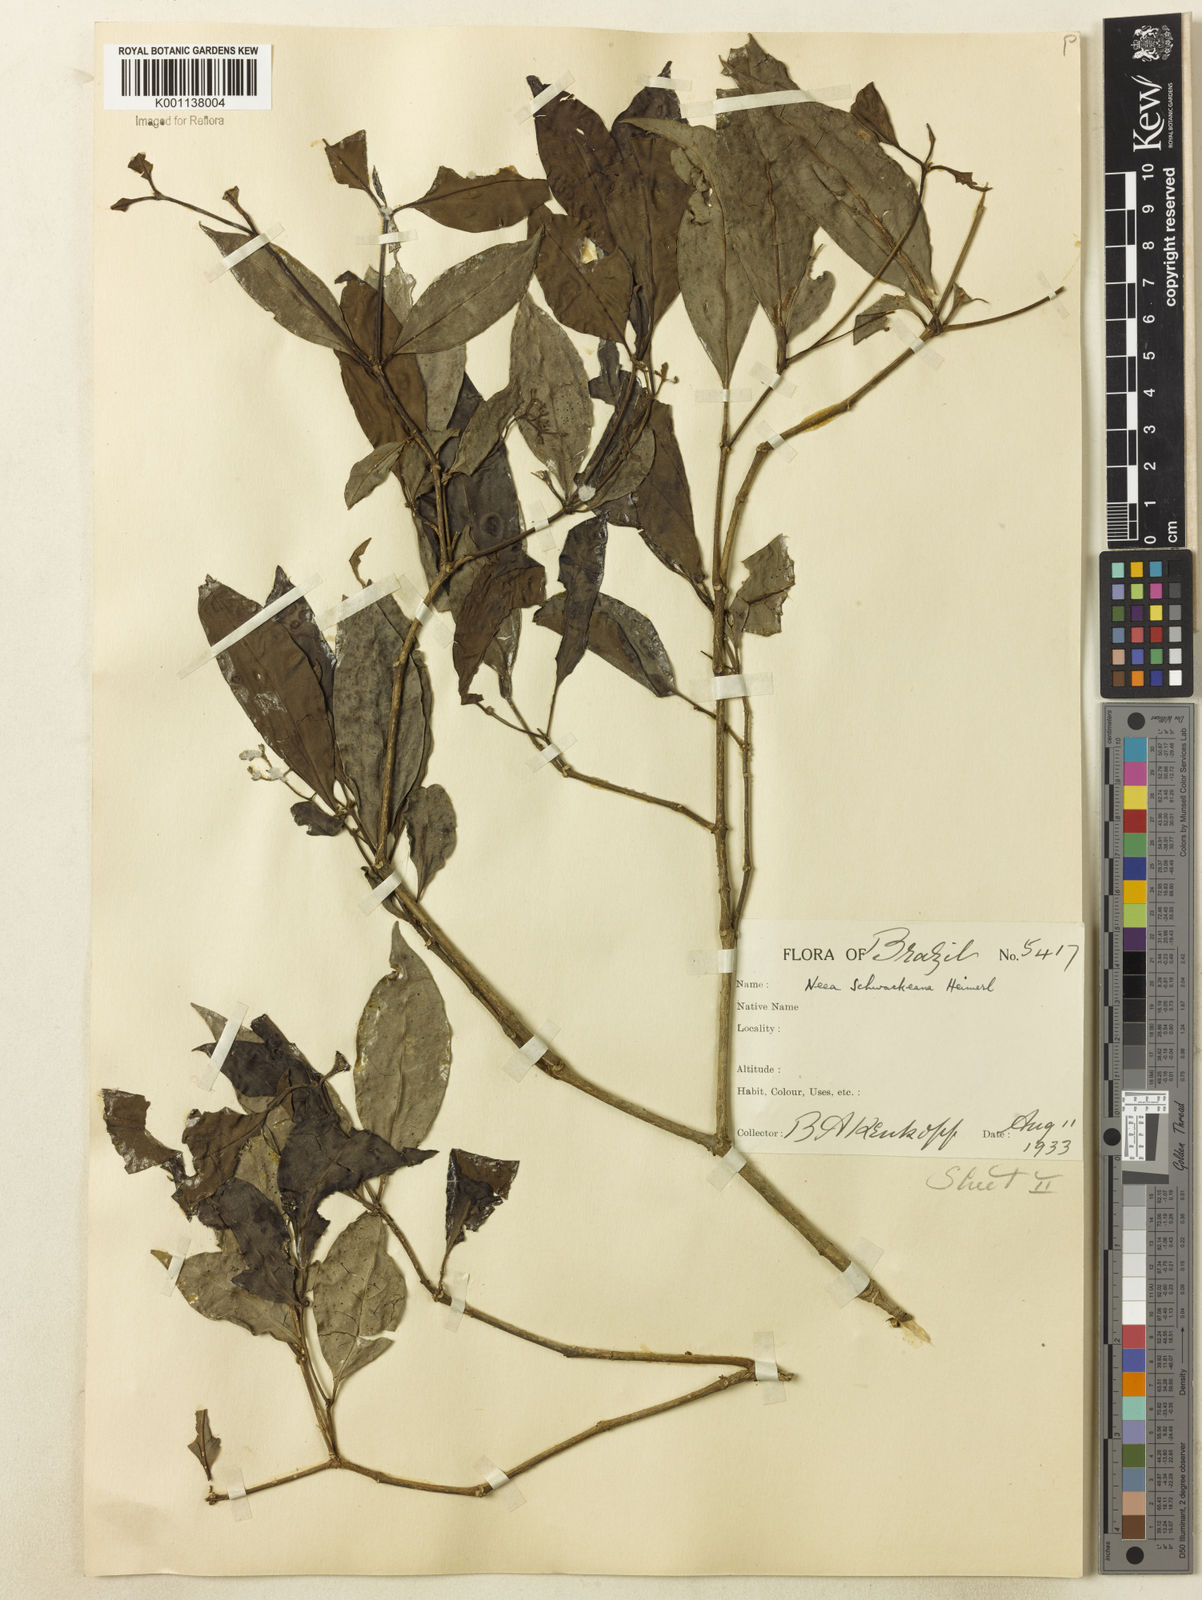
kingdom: Plantae
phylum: Tracheophyta
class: Magnoliopsida
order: Caryophyllales
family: Nyctaginaceae
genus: Neea
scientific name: Neea schwackeana
